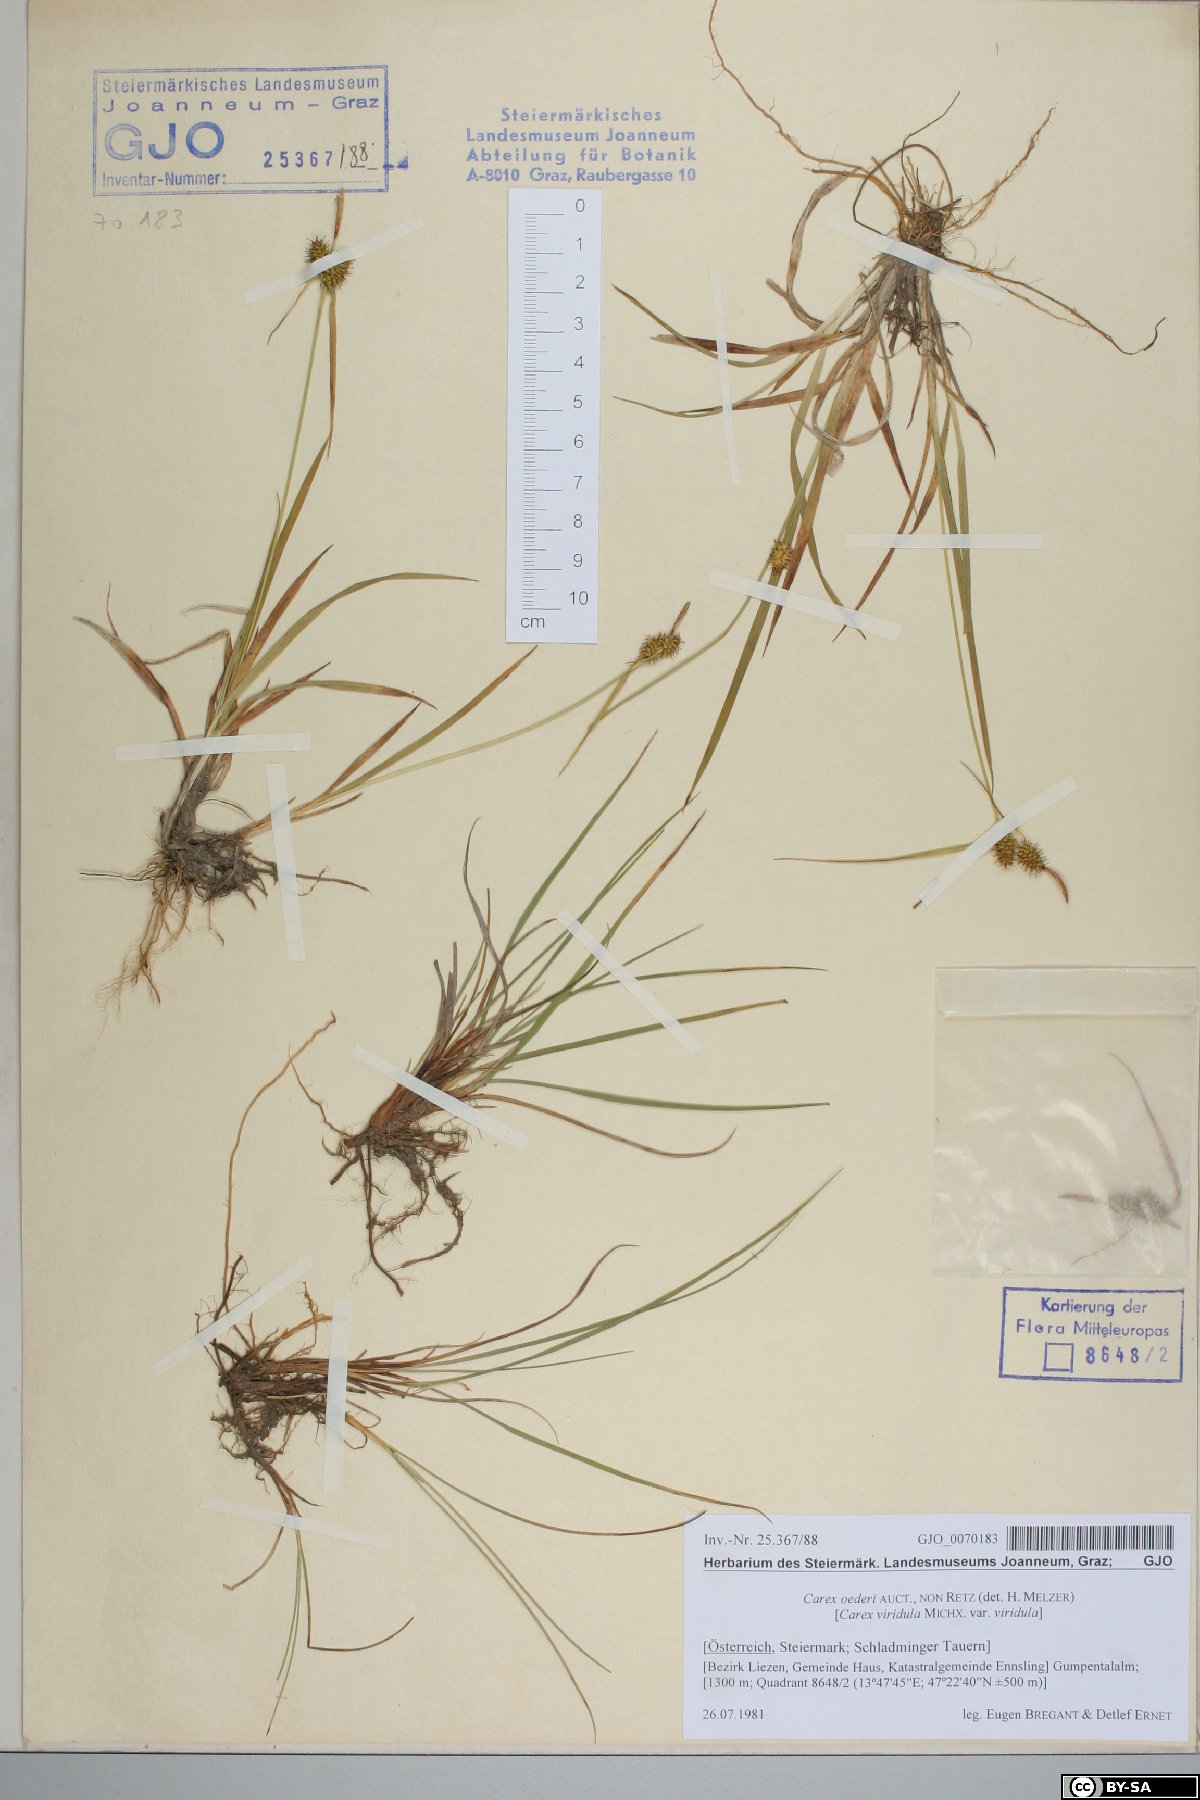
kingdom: Plantae
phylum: Tracheophyta
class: Liliopsida
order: Poales
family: Cyperaceae
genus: Carex
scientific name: Carex oederi
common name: Common & small-fruited yellow-sedge
